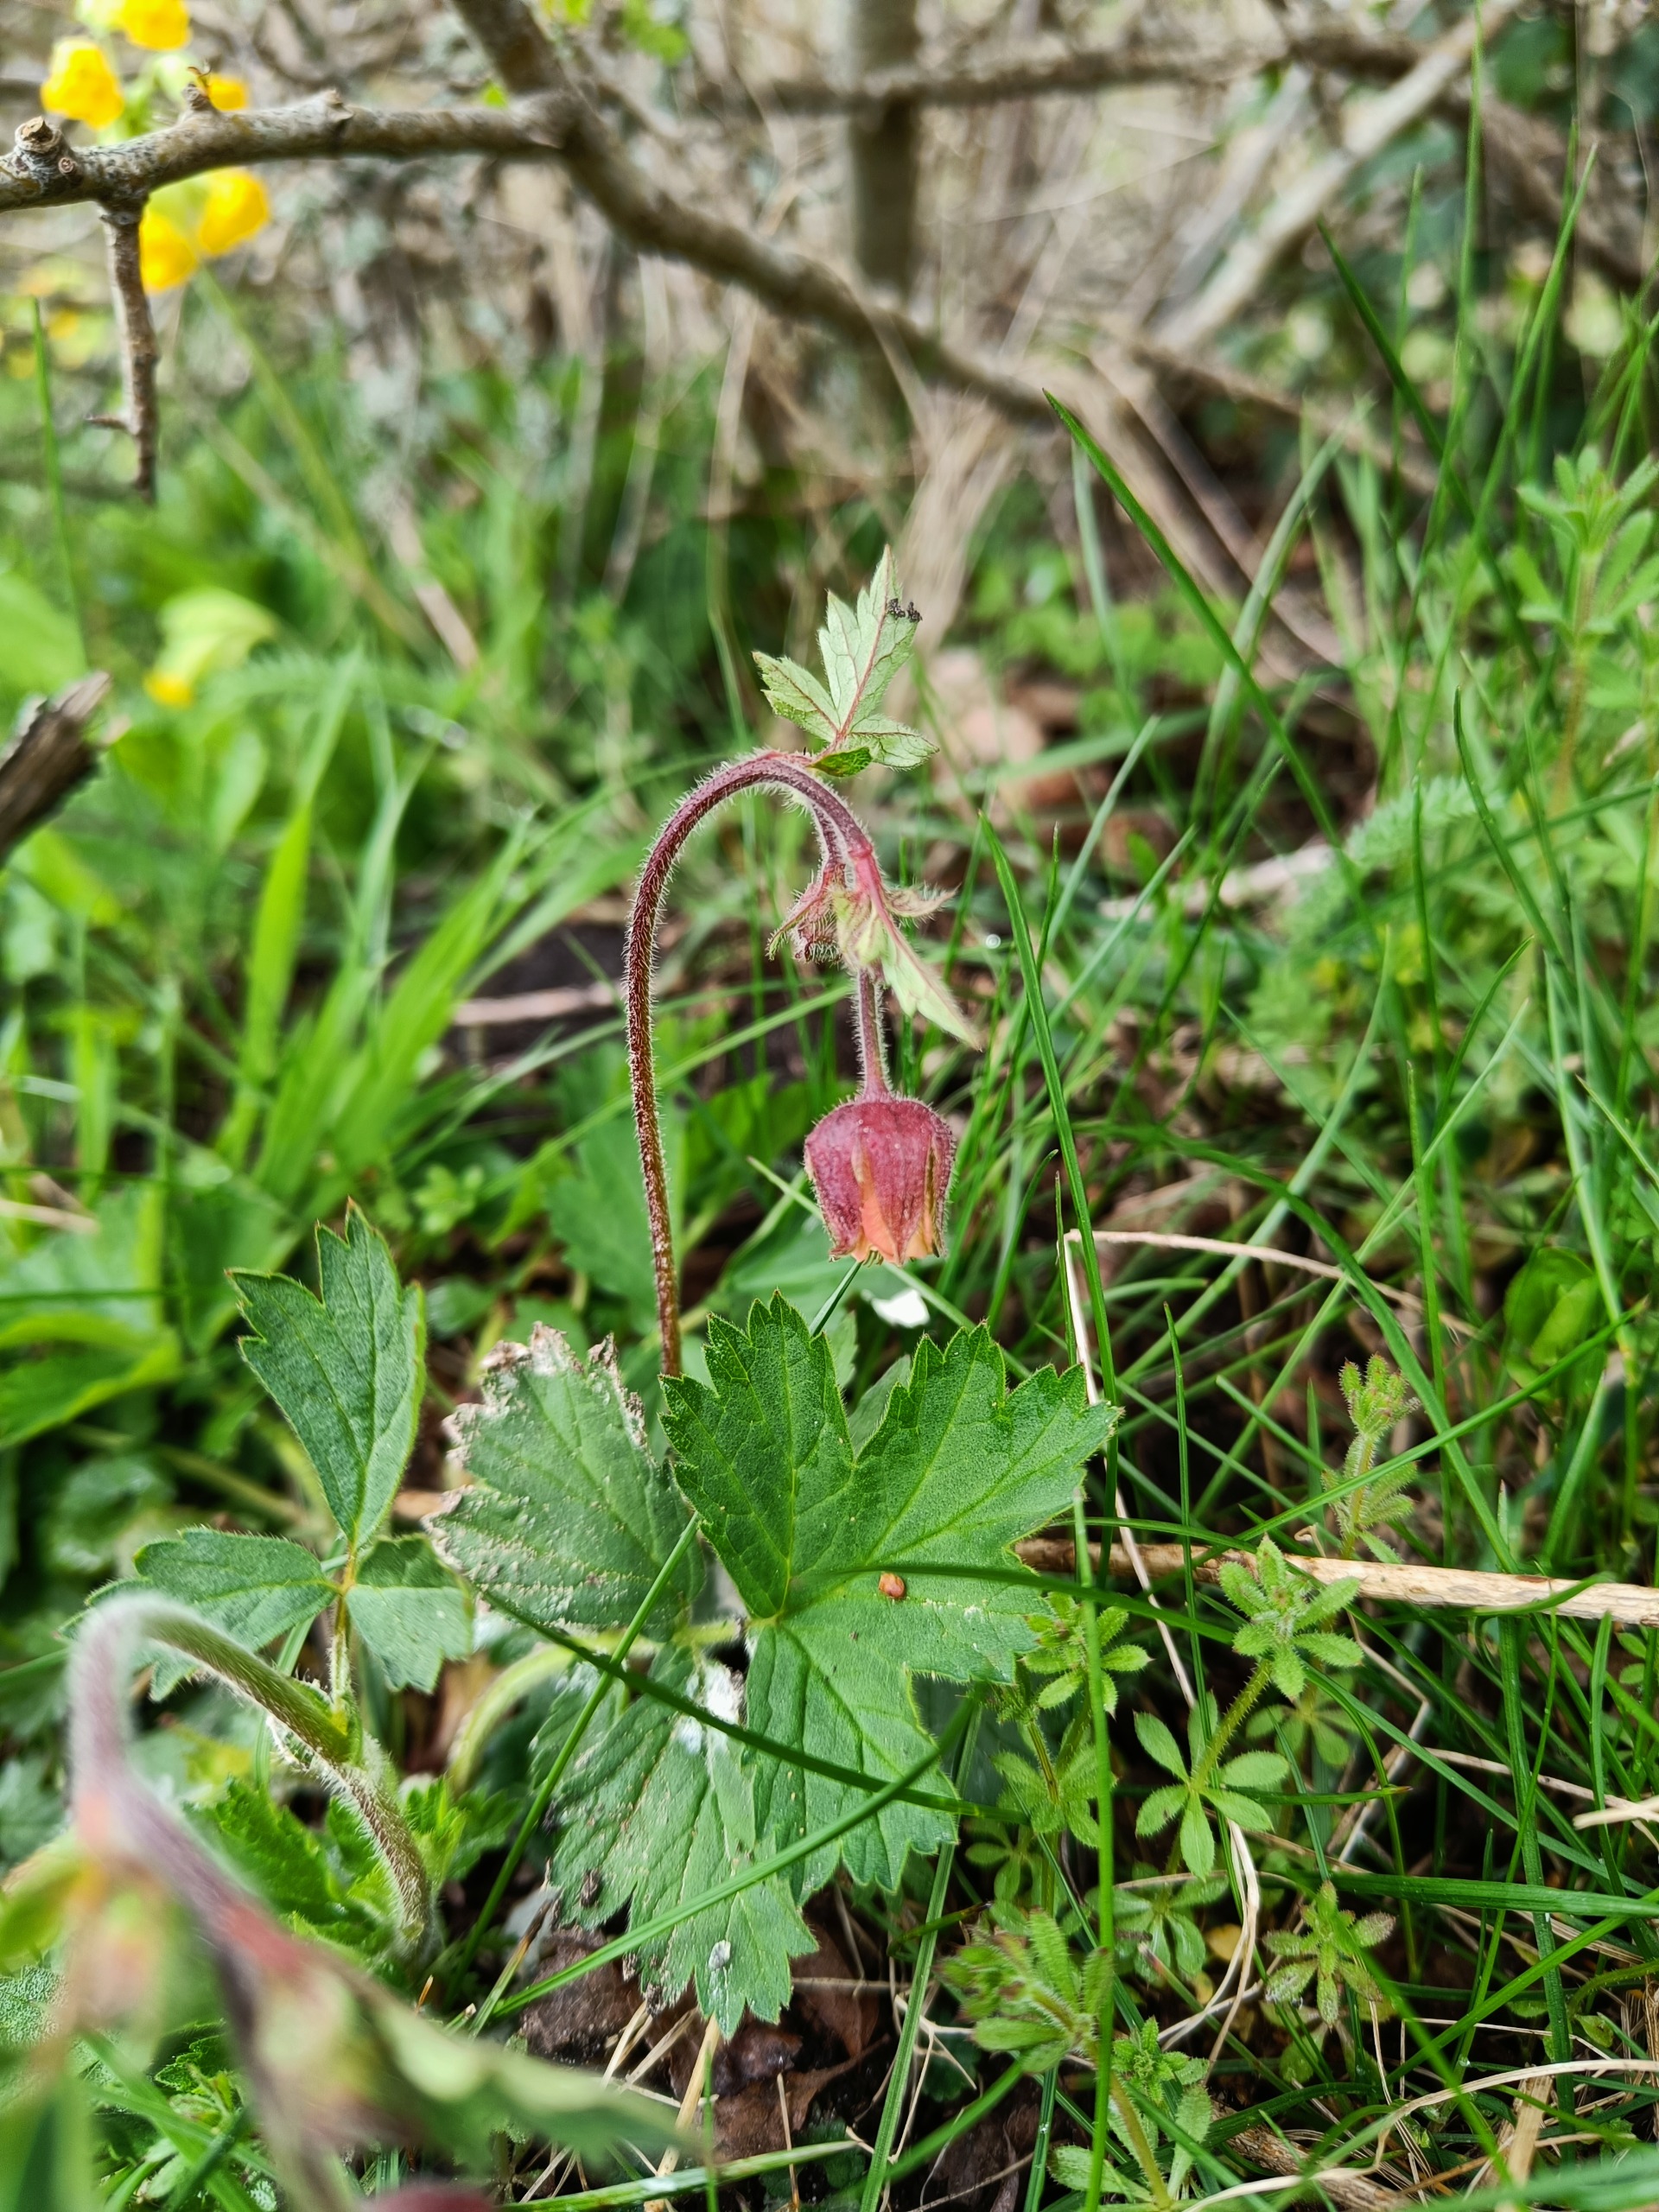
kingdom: Plantae
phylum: Tracheophyta
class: Magnoliopsida
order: Rosales
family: Rosaceae
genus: Geum
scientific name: Geum rivale
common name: Eng-nellikerod
